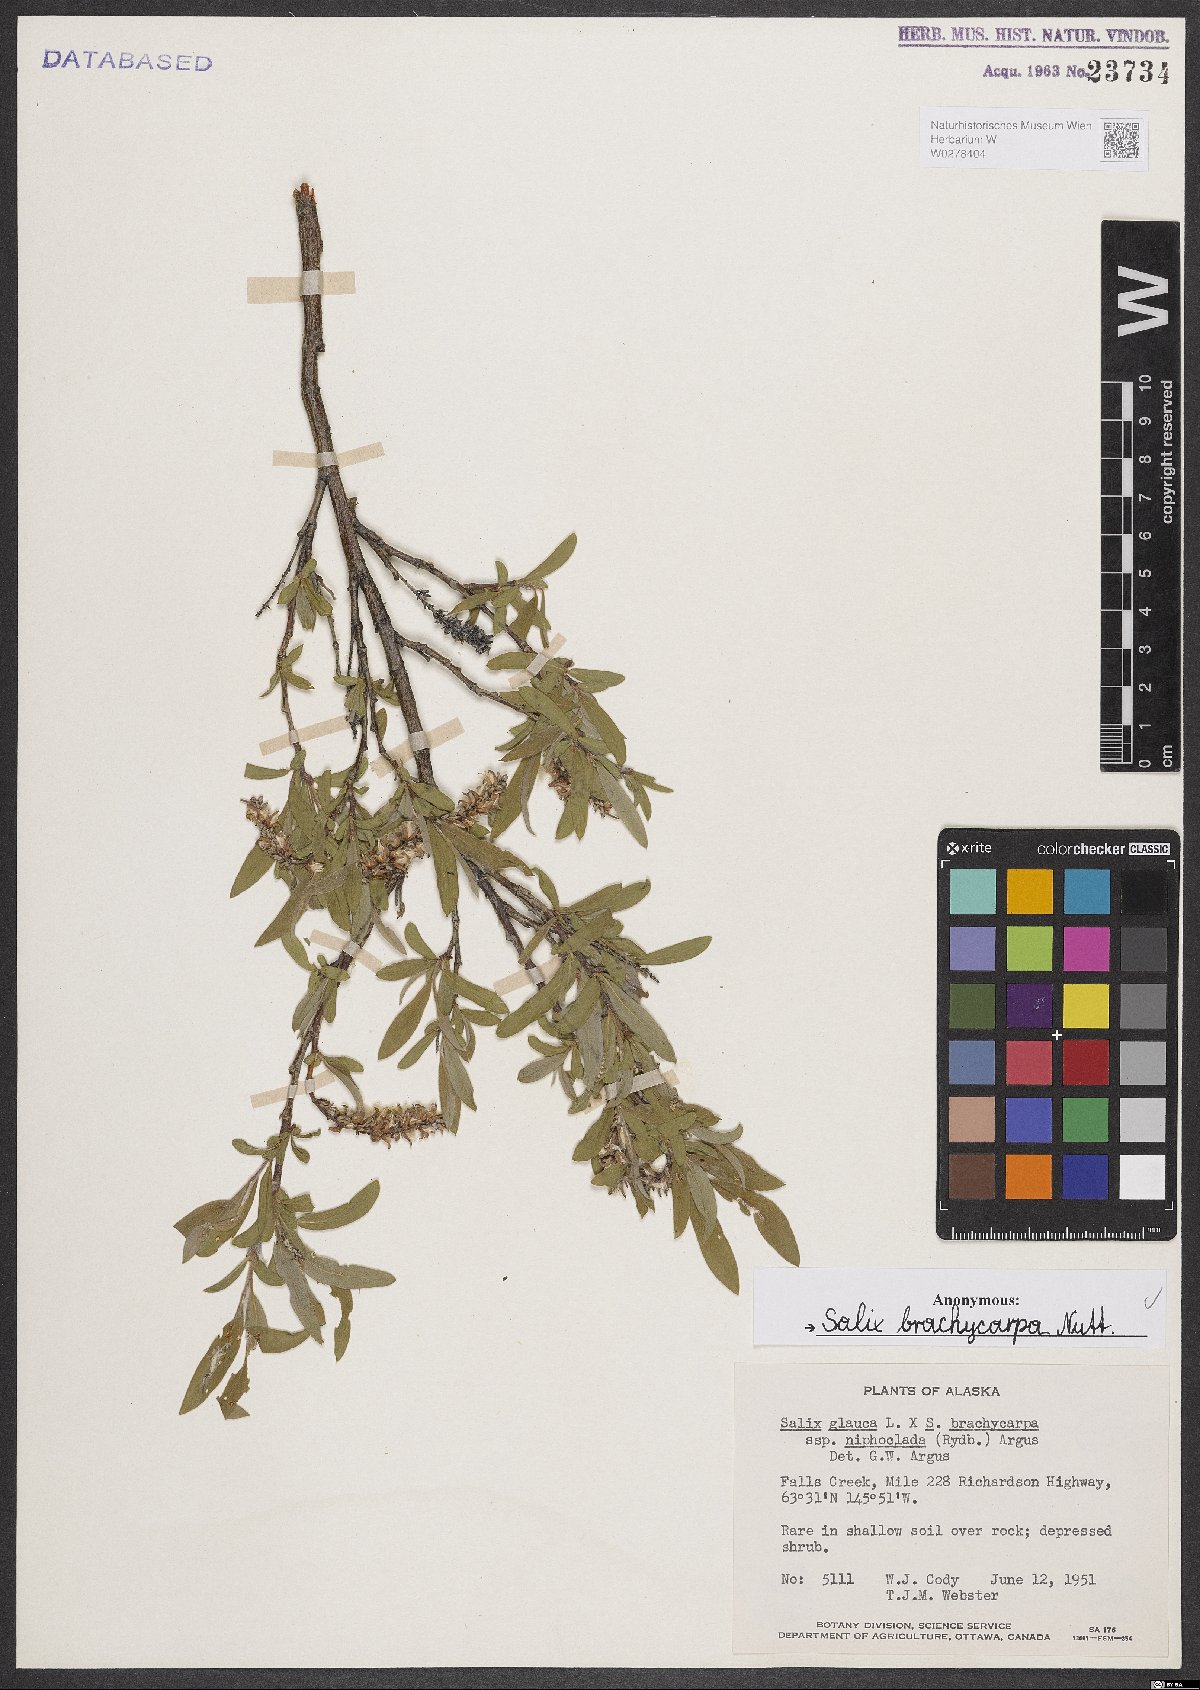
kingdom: Plantae
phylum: Tracheophyta
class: Magnoliopsida
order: Malpighiales
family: Salicaceae
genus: Salix
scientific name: Salix brachycarpa
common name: Barren-ground willow
